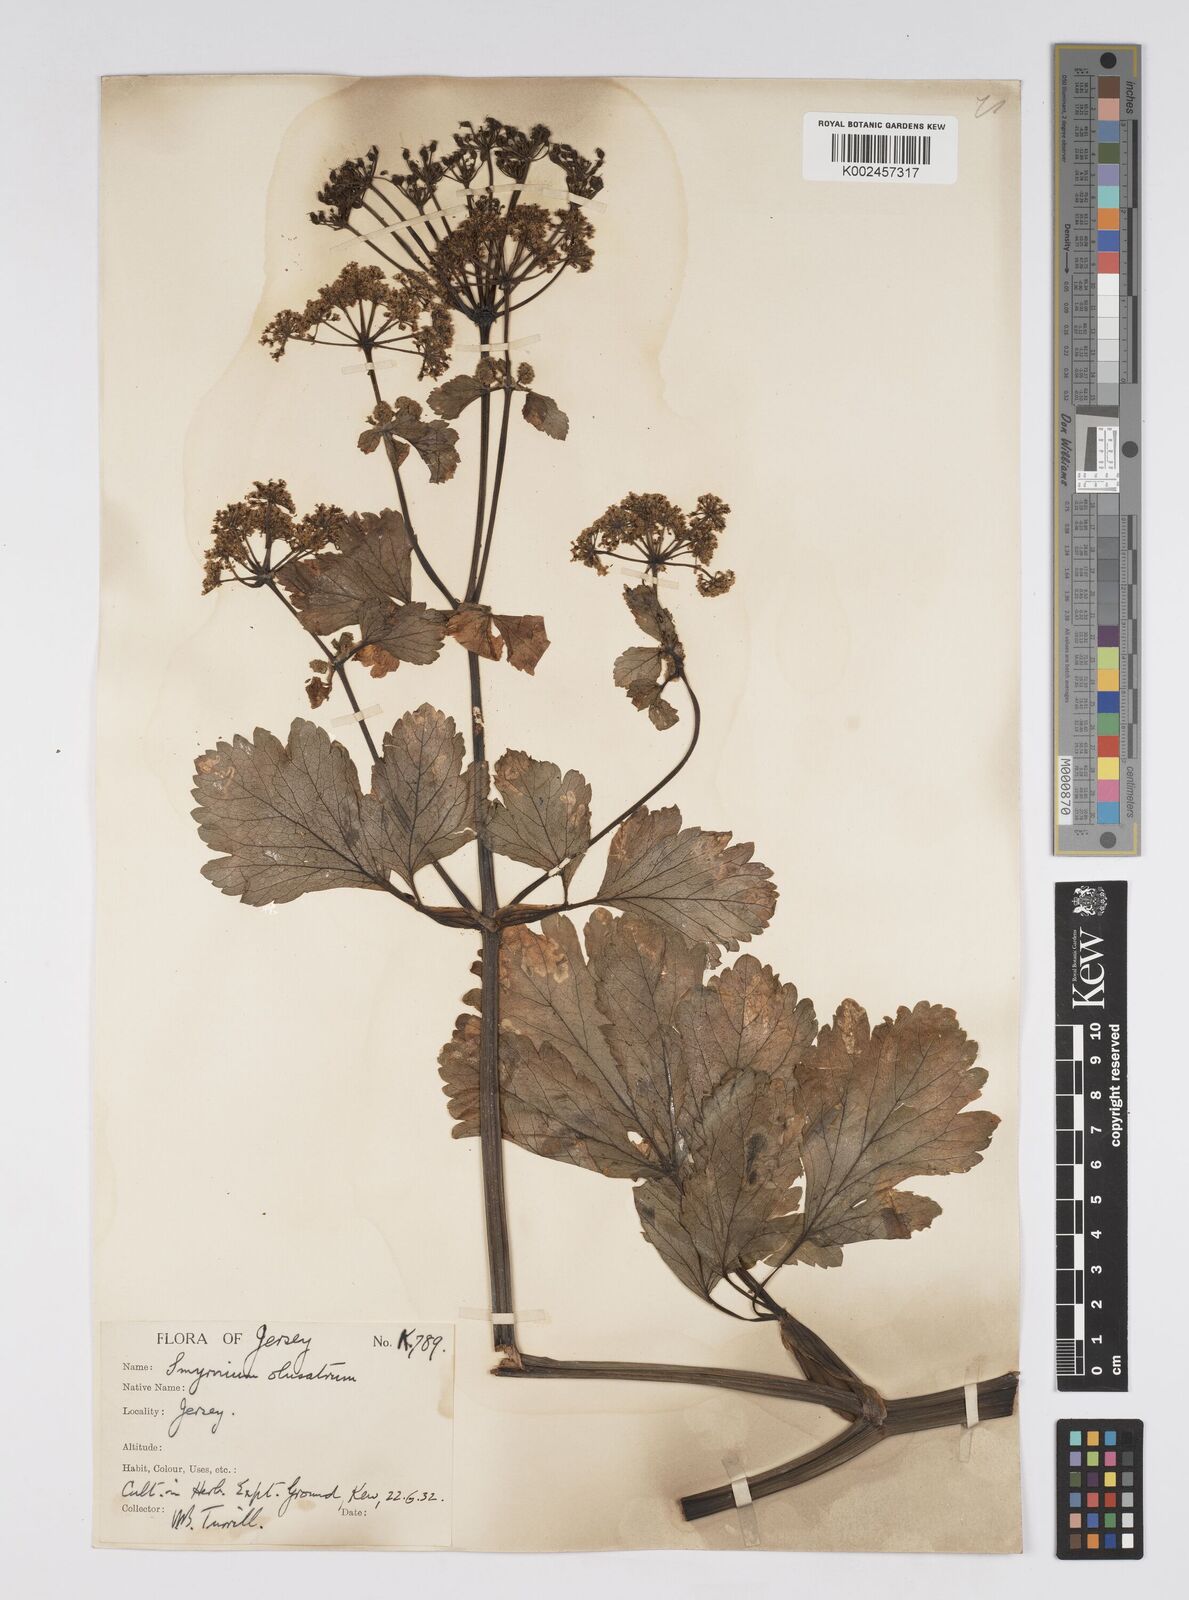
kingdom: Plantae
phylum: Tracheophyta
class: Magnoliopsida
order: Apiales
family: Apiaceae
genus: Smyrnium
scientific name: Smyrnium olusatrum
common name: Alexanders
